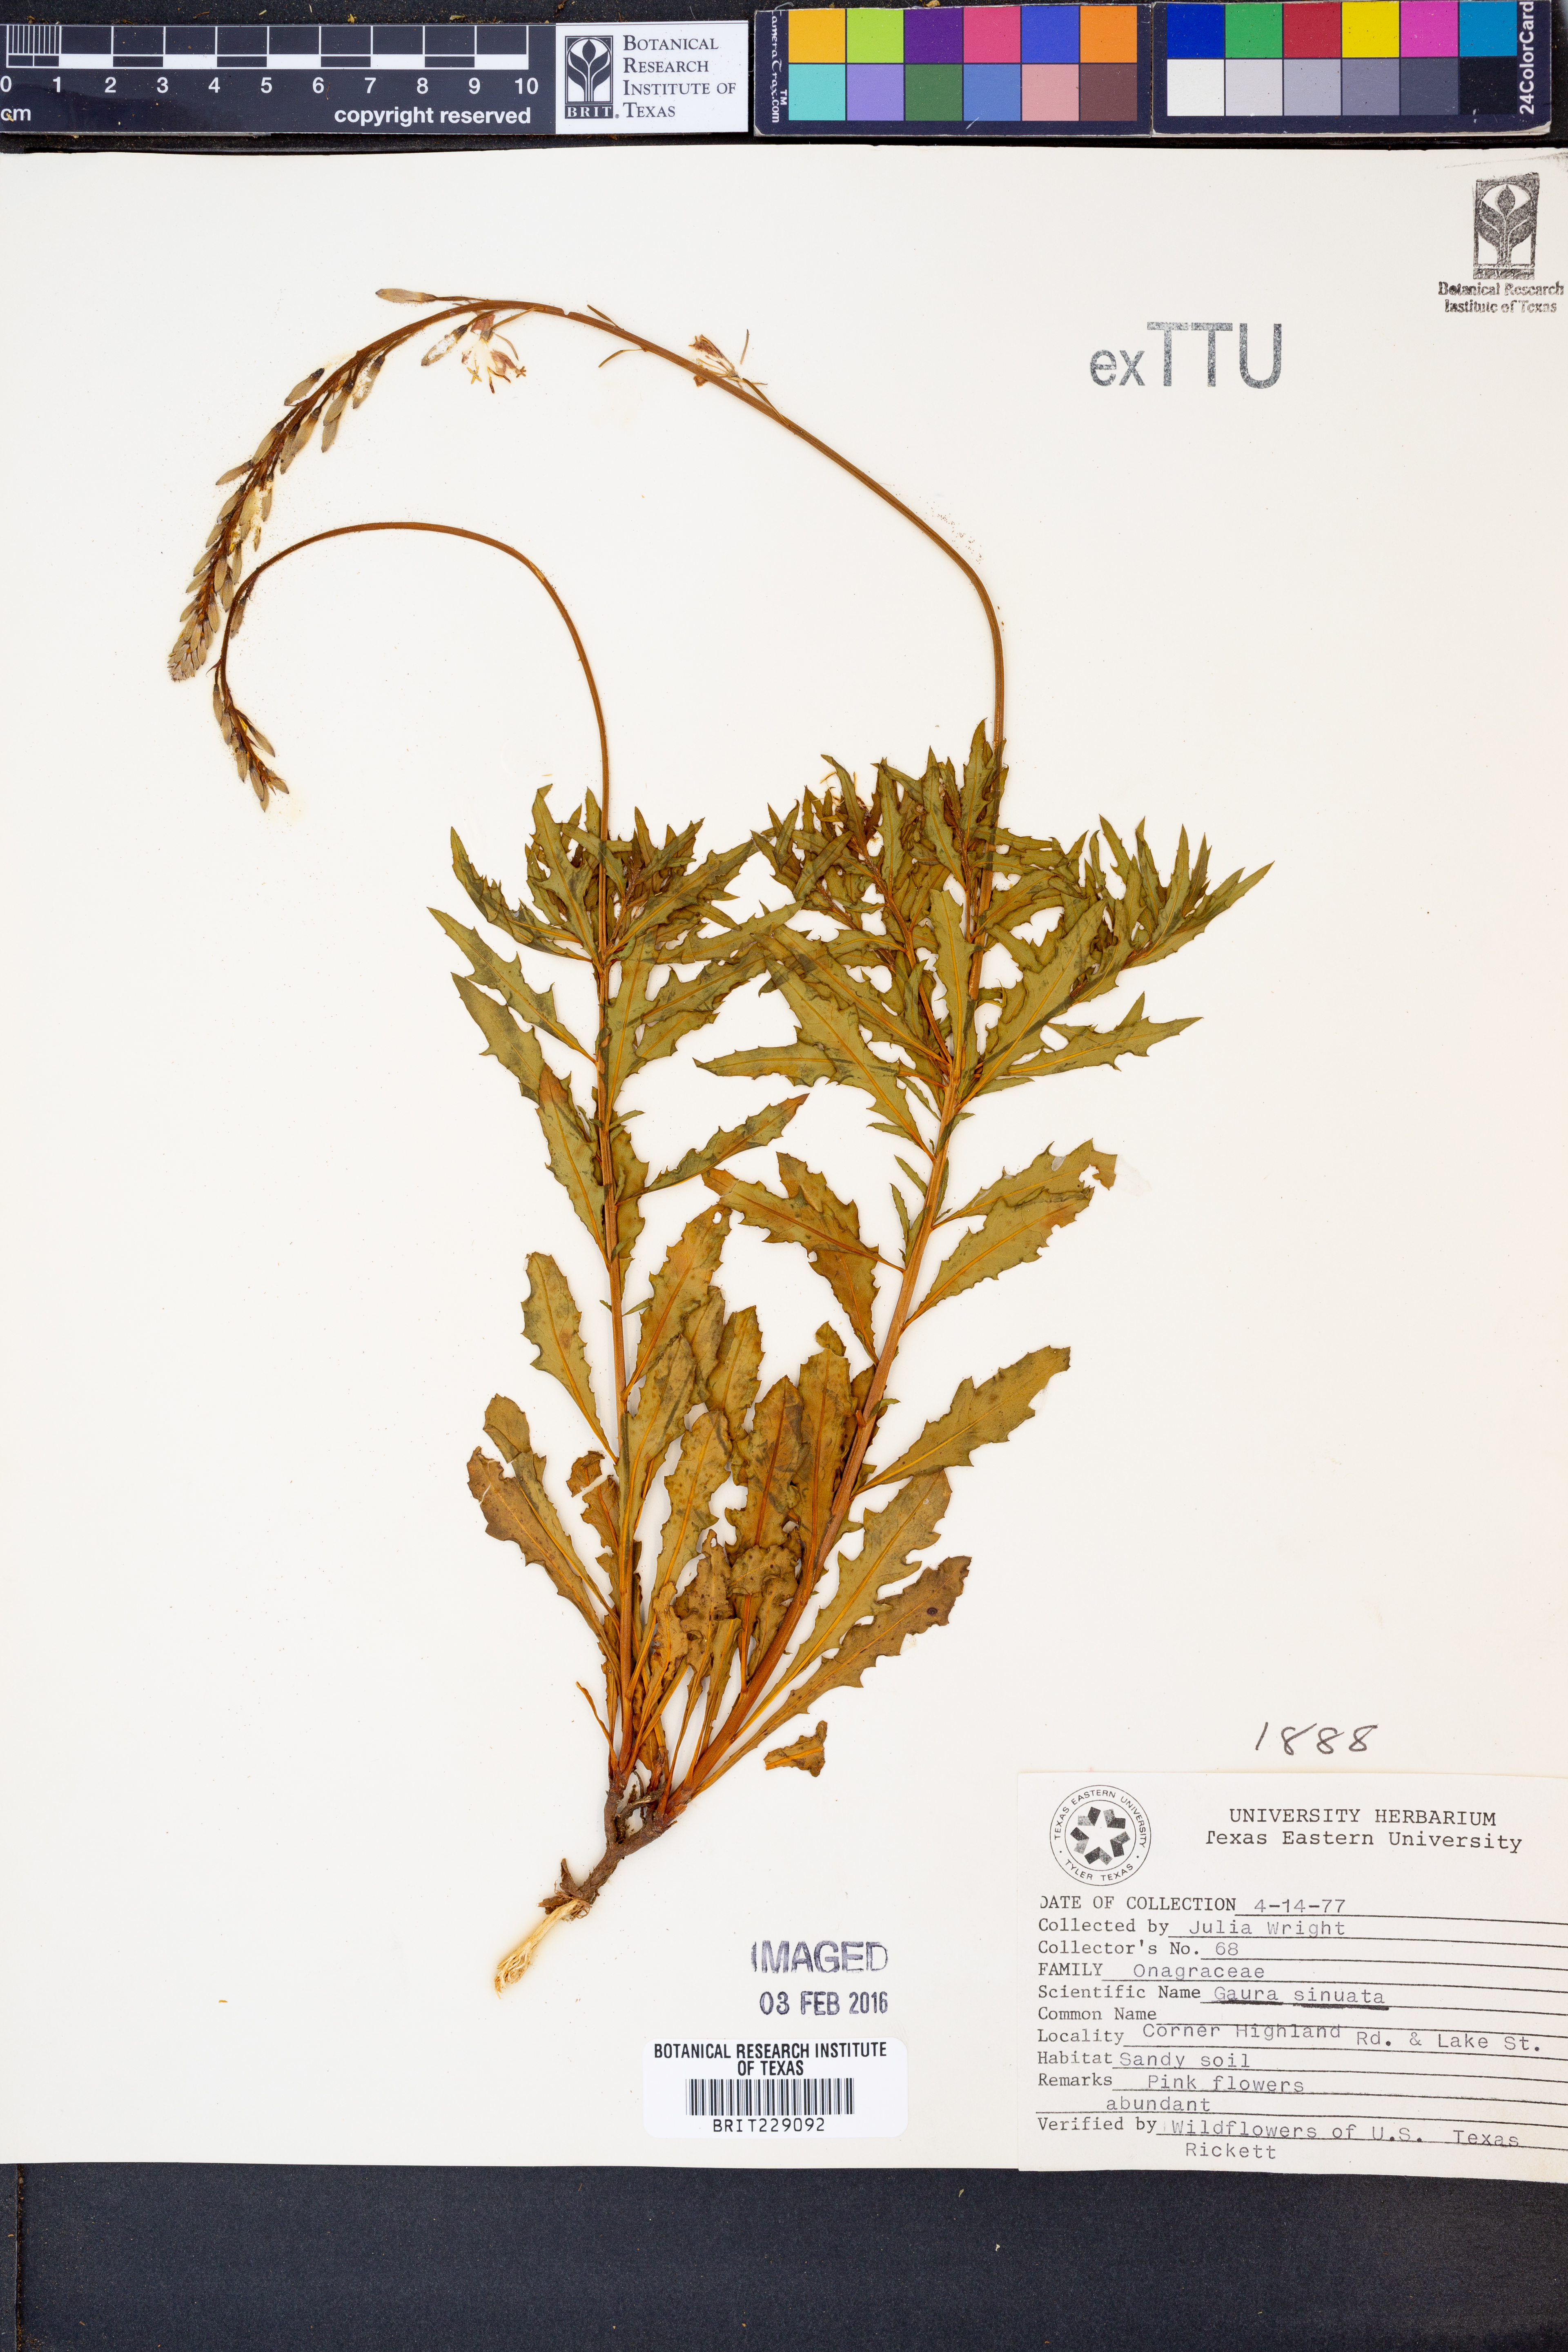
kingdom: Plantae
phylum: Tracheophyta
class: Magnoliopsida
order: Myrtales
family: Onagraceae
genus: Oenothera
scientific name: Oenothera sinuosa
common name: Wavyleaf beeblossom
